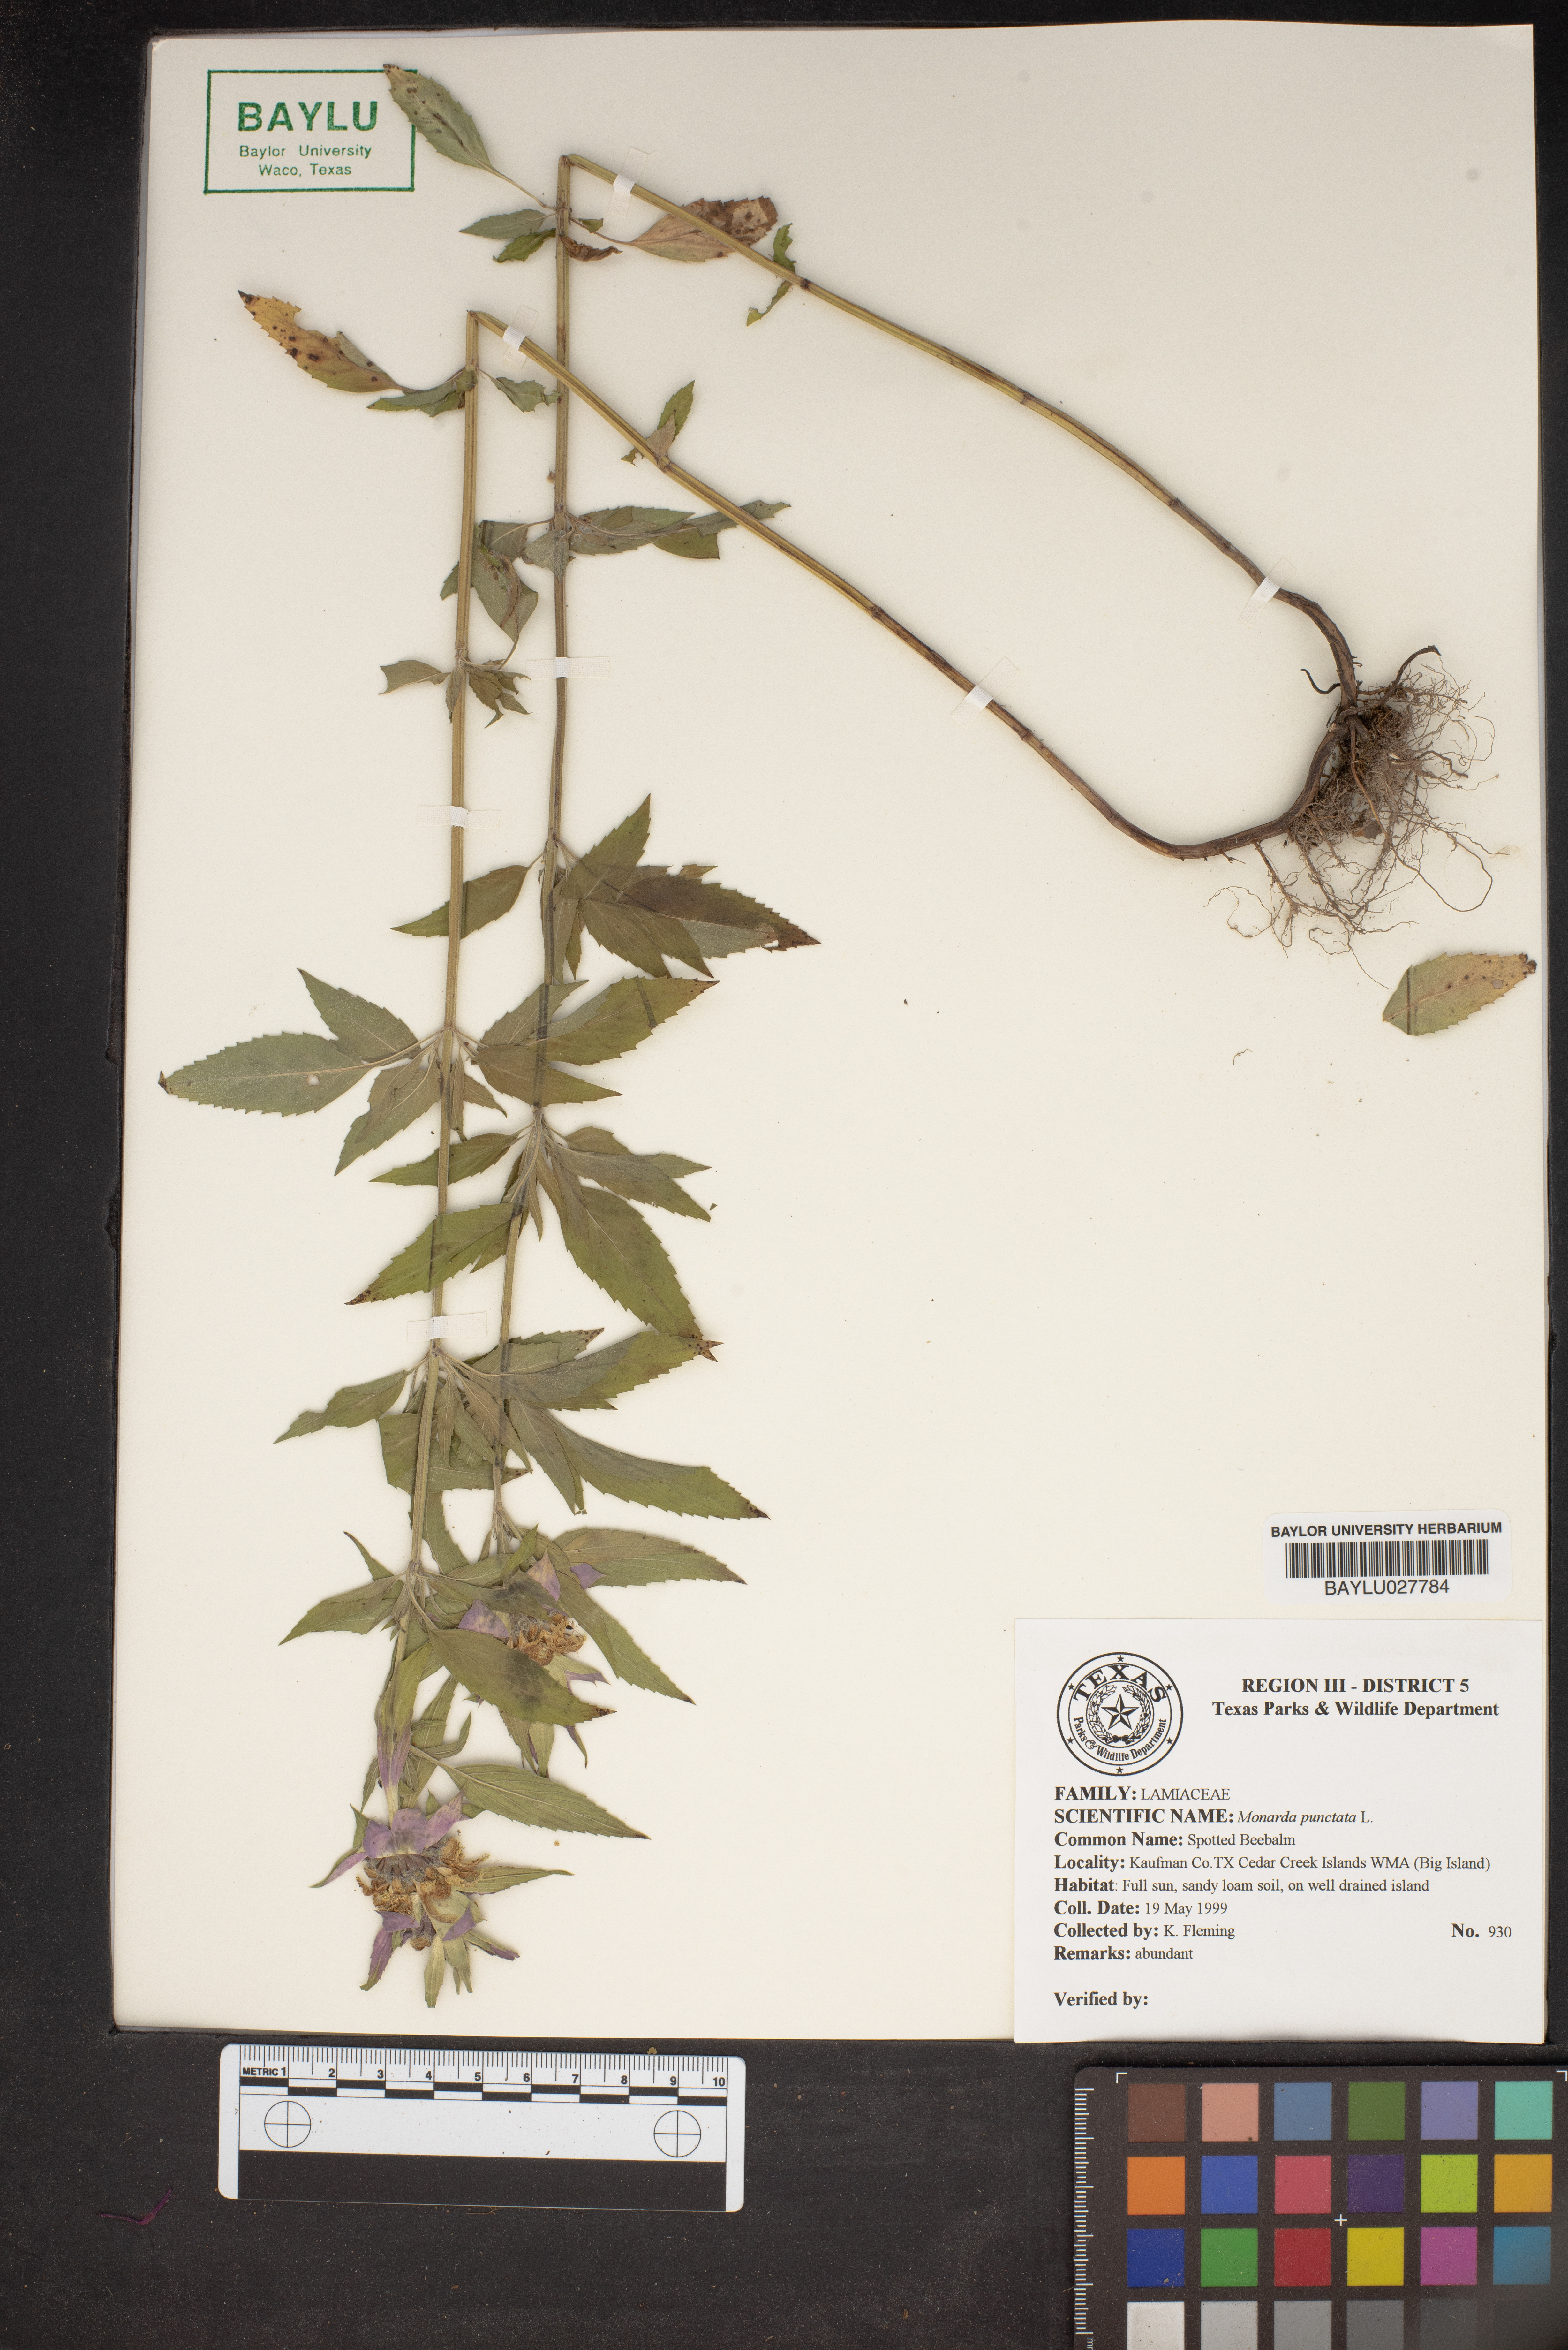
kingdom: Plantae
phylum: Tracheophyta
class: Magnoliopsida
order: Lamiales
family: Lamiaceae
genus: Monarda
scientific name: Monarda punctata
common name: Dotted monarda
